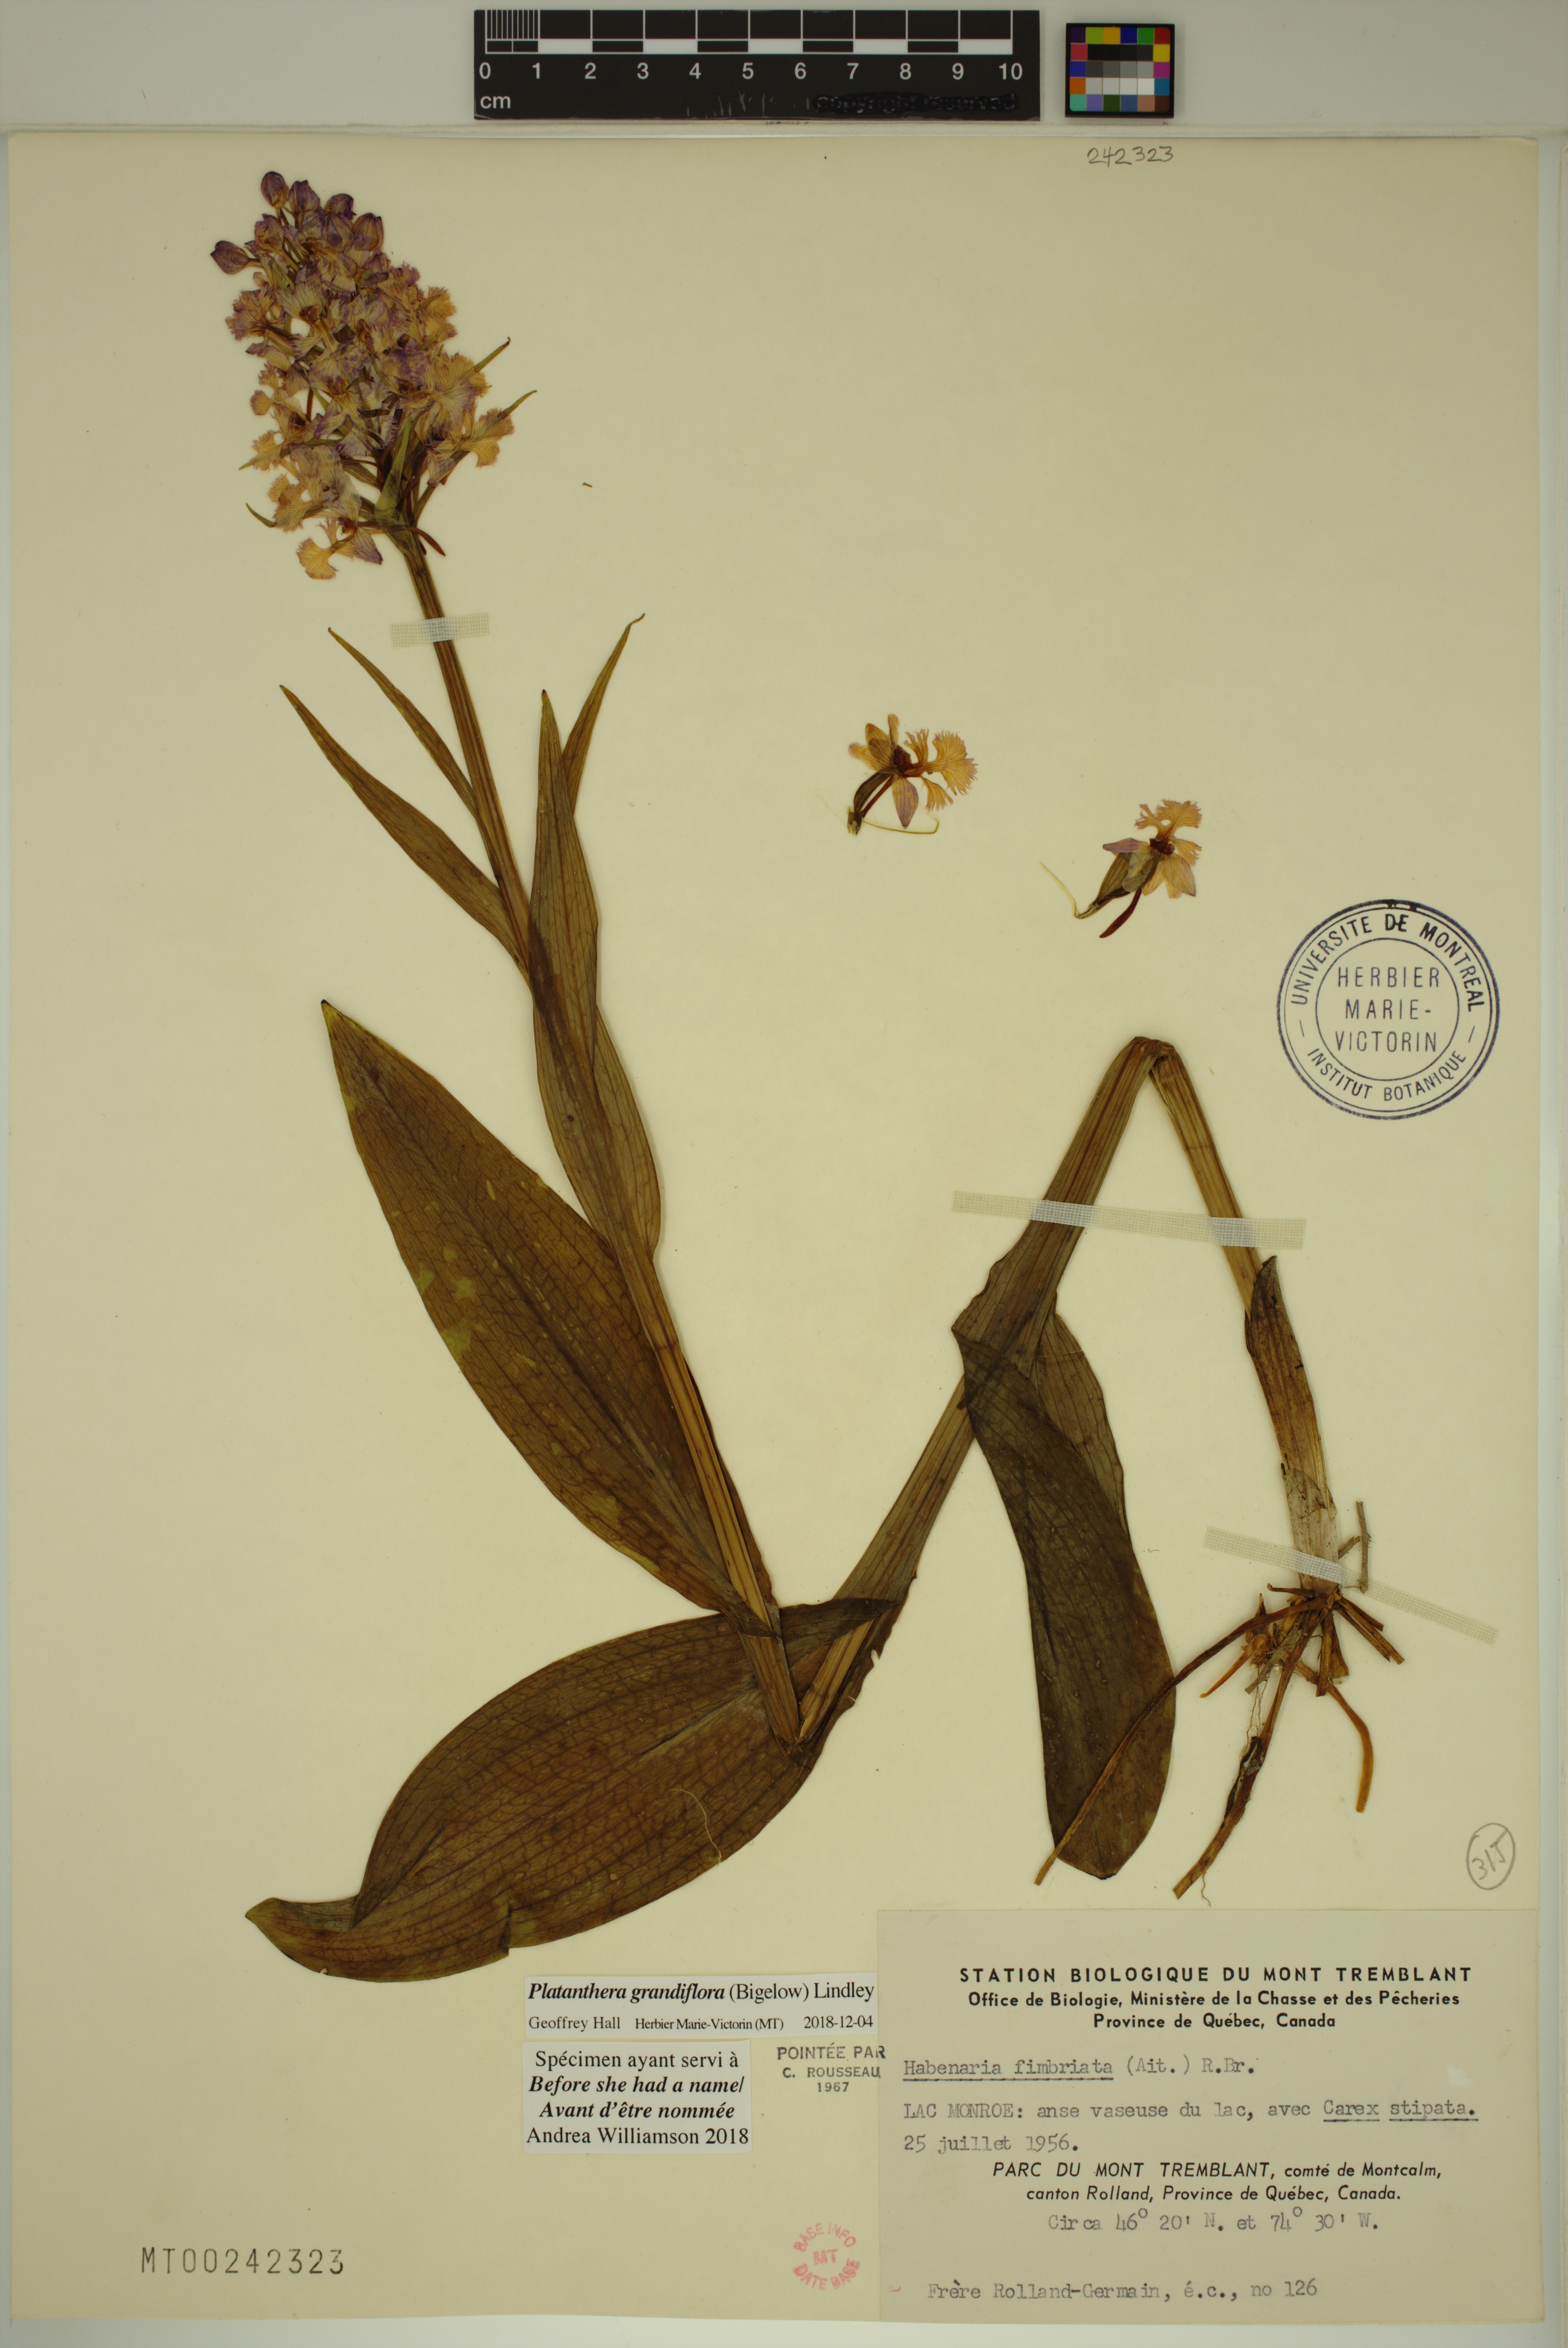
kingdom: Plantae
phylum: Tracheophyta
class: Liliopsida
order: Asparagales
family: Orchidaceae
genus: Platanthera
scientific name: Platanthera grandiflora
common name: Greater purple fringed orchid
